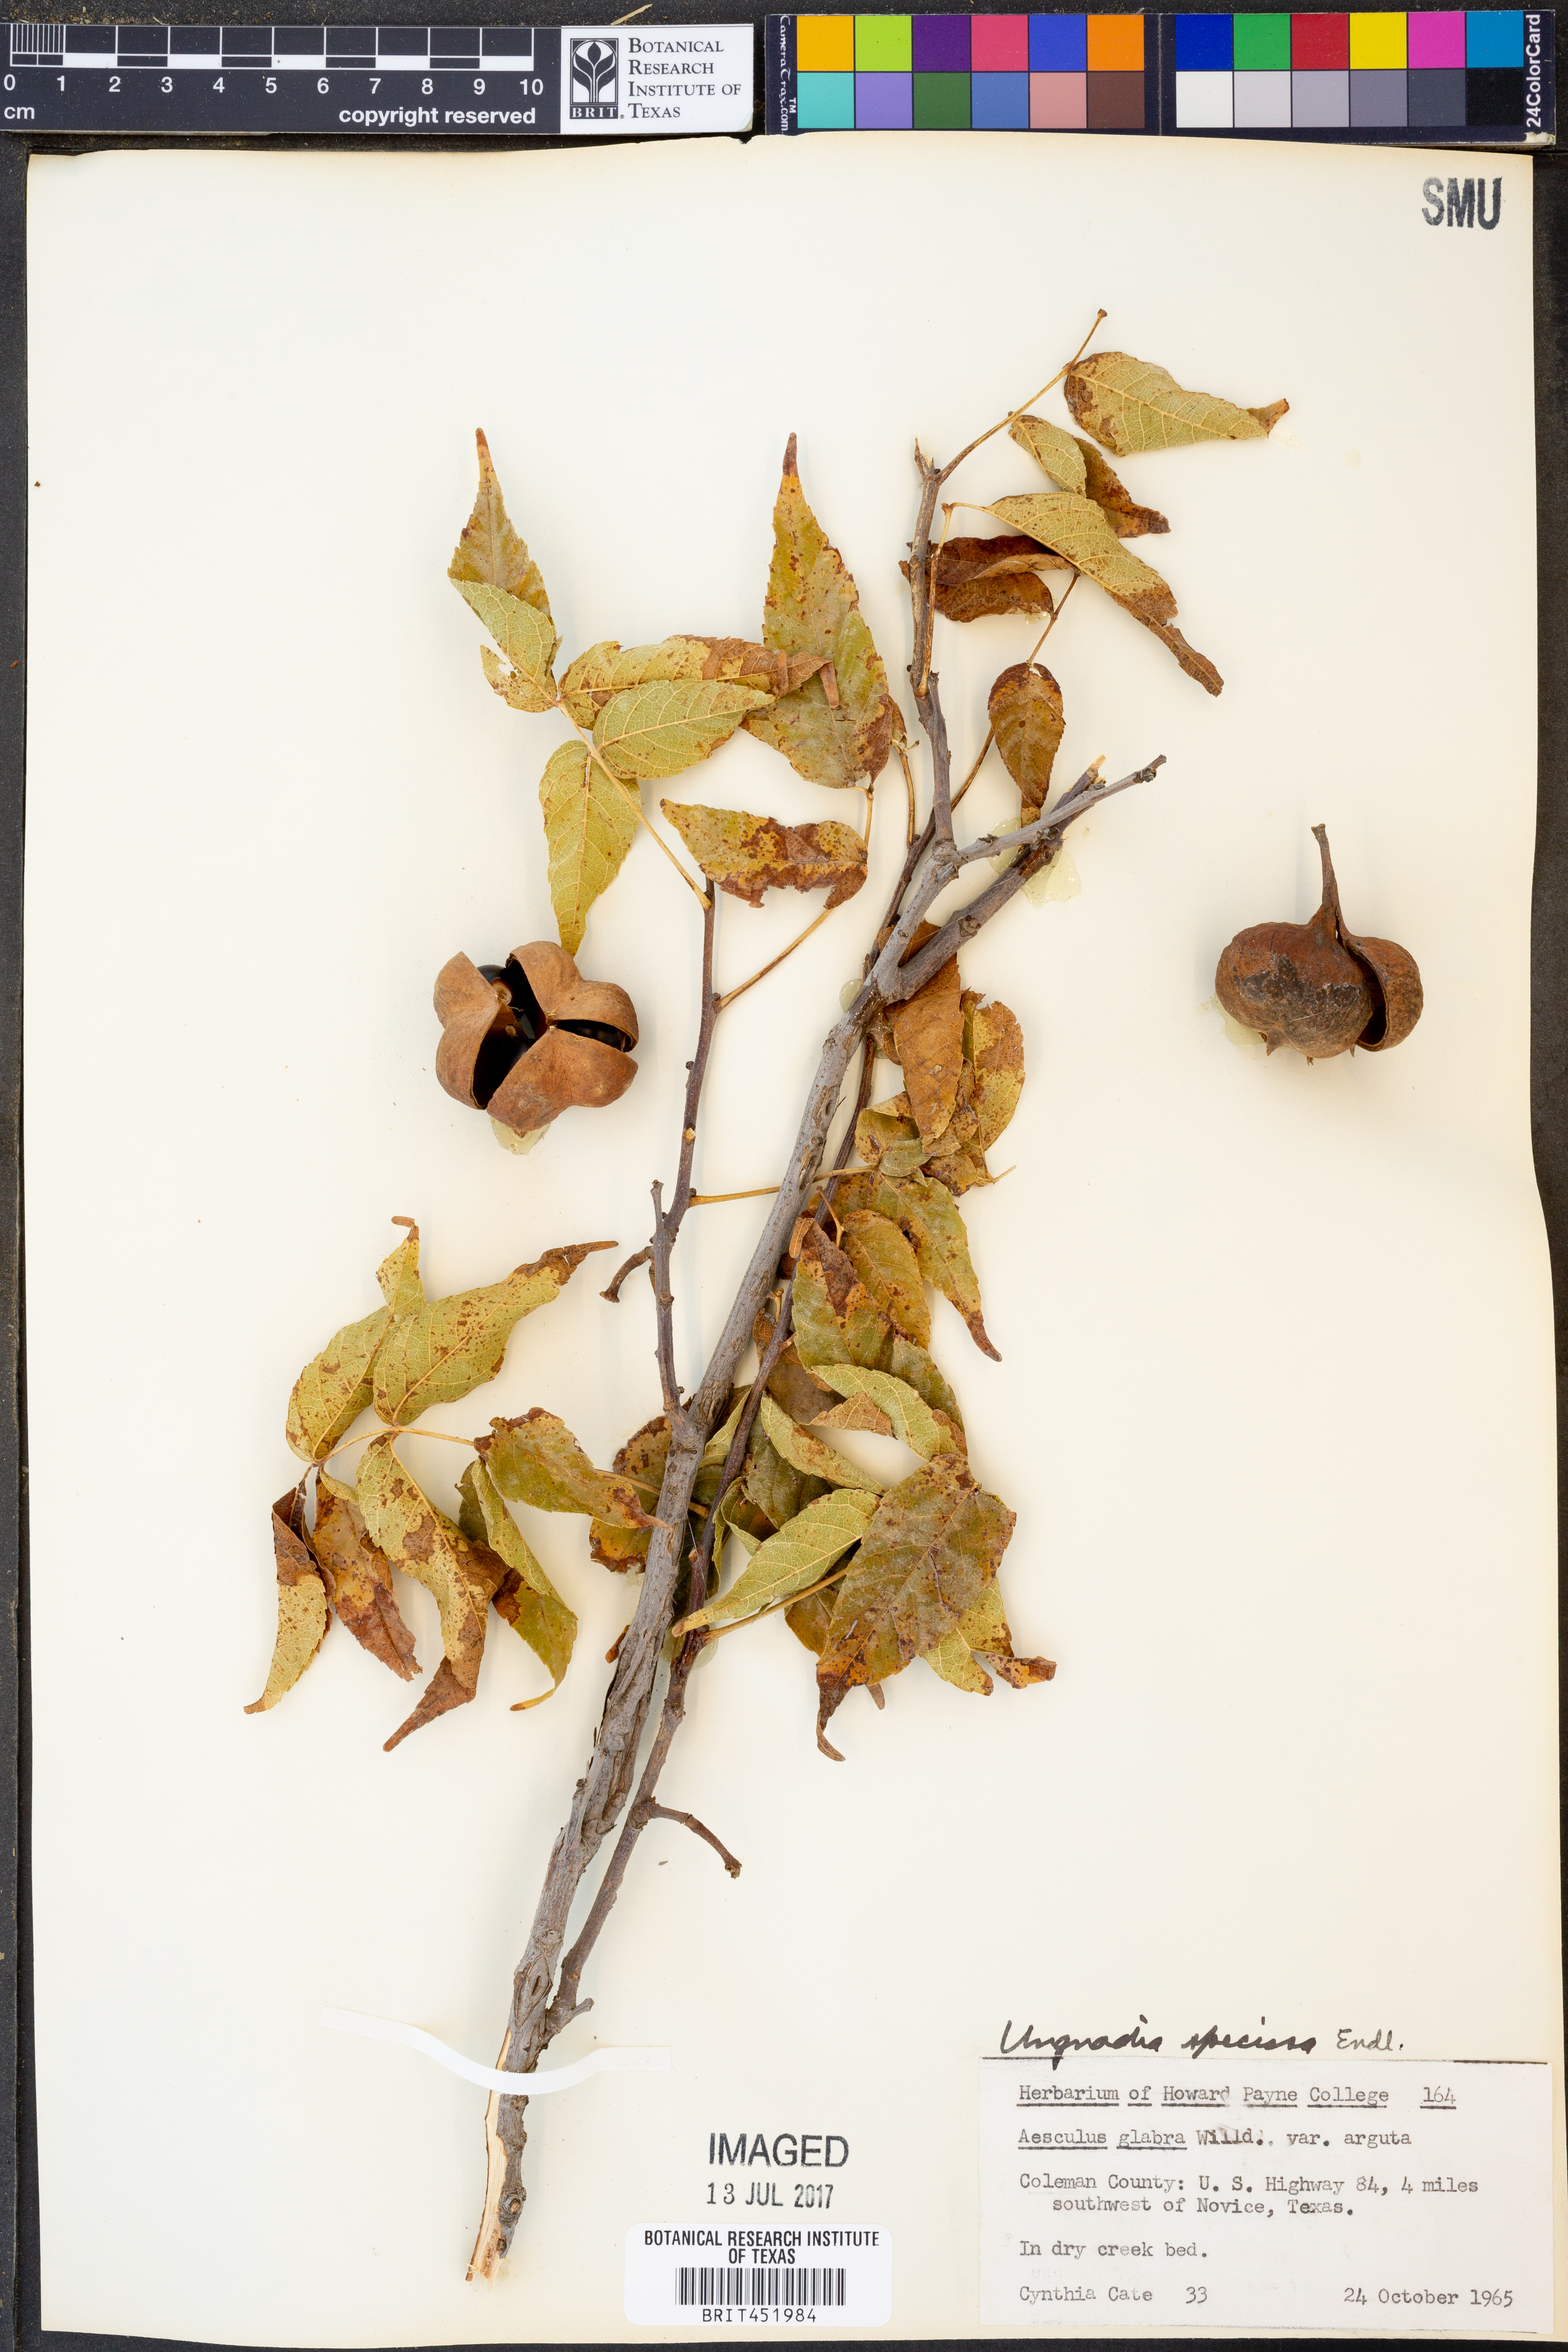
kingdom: Plantae
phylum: Tracheophyta
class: Magnoliopsida
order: Sapindales
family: Sapindaceae
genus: Aesculus
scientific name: Aesculus glabra
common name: Ohio buckeye
